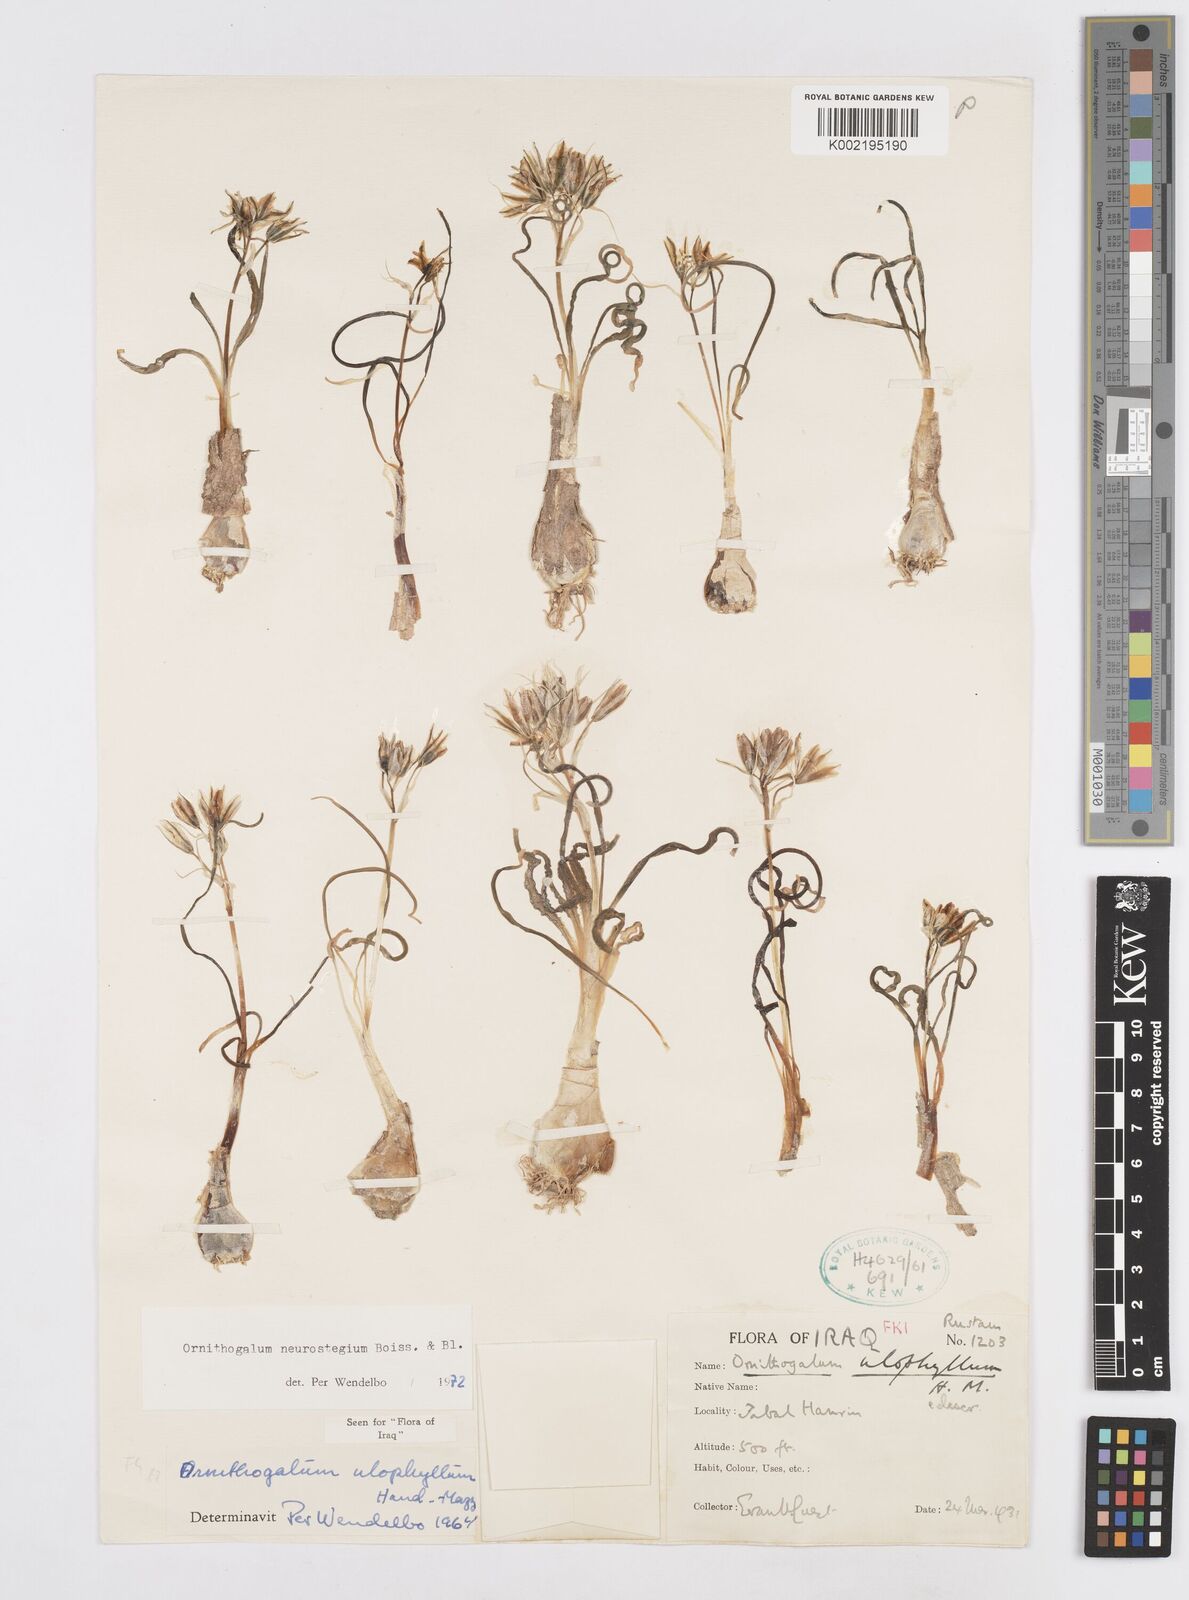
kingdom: Plantae
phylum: Tracheophyta
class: Liliopsida
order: Asparagales
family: Asparagaceae
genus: Ornithogalum
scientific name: Ornithogalum neurostegium
